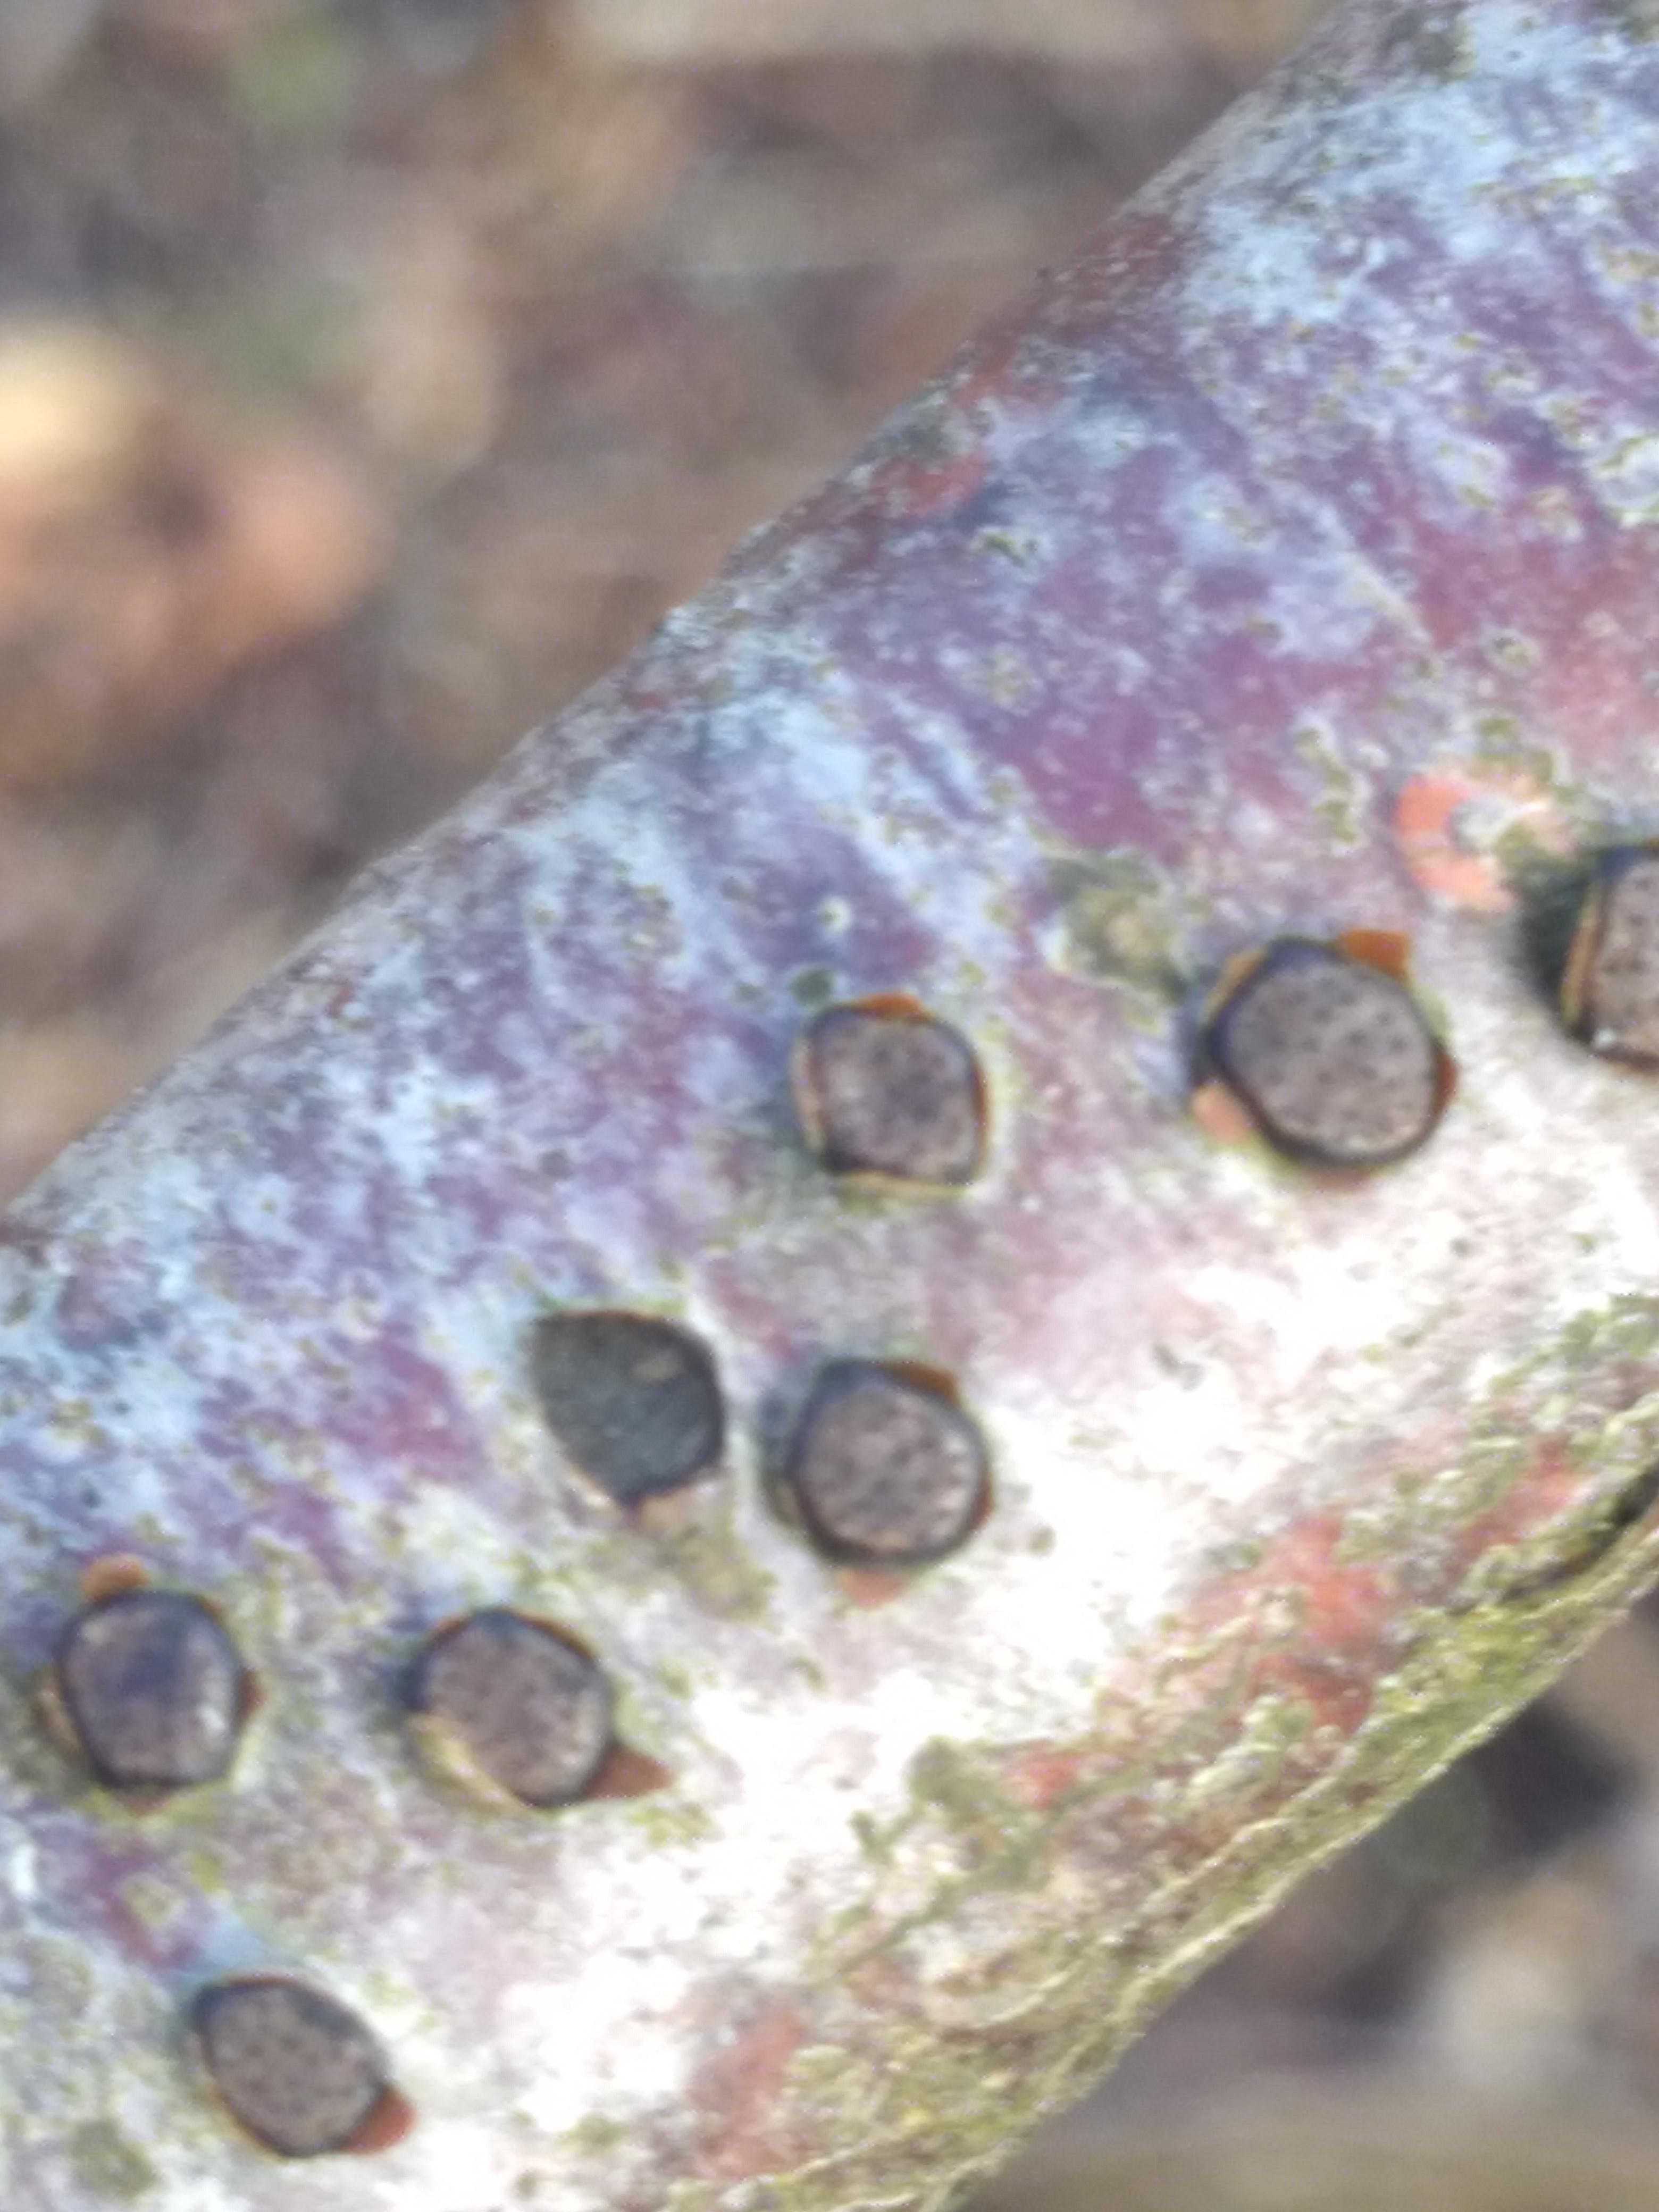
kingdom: Fungi
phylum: Ascomycota
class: Sordariomycetes
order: Xylariales
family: Diatrypaceae
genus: Diatrype
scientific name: Diatrype disciformis
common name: kant-kulskorpe
